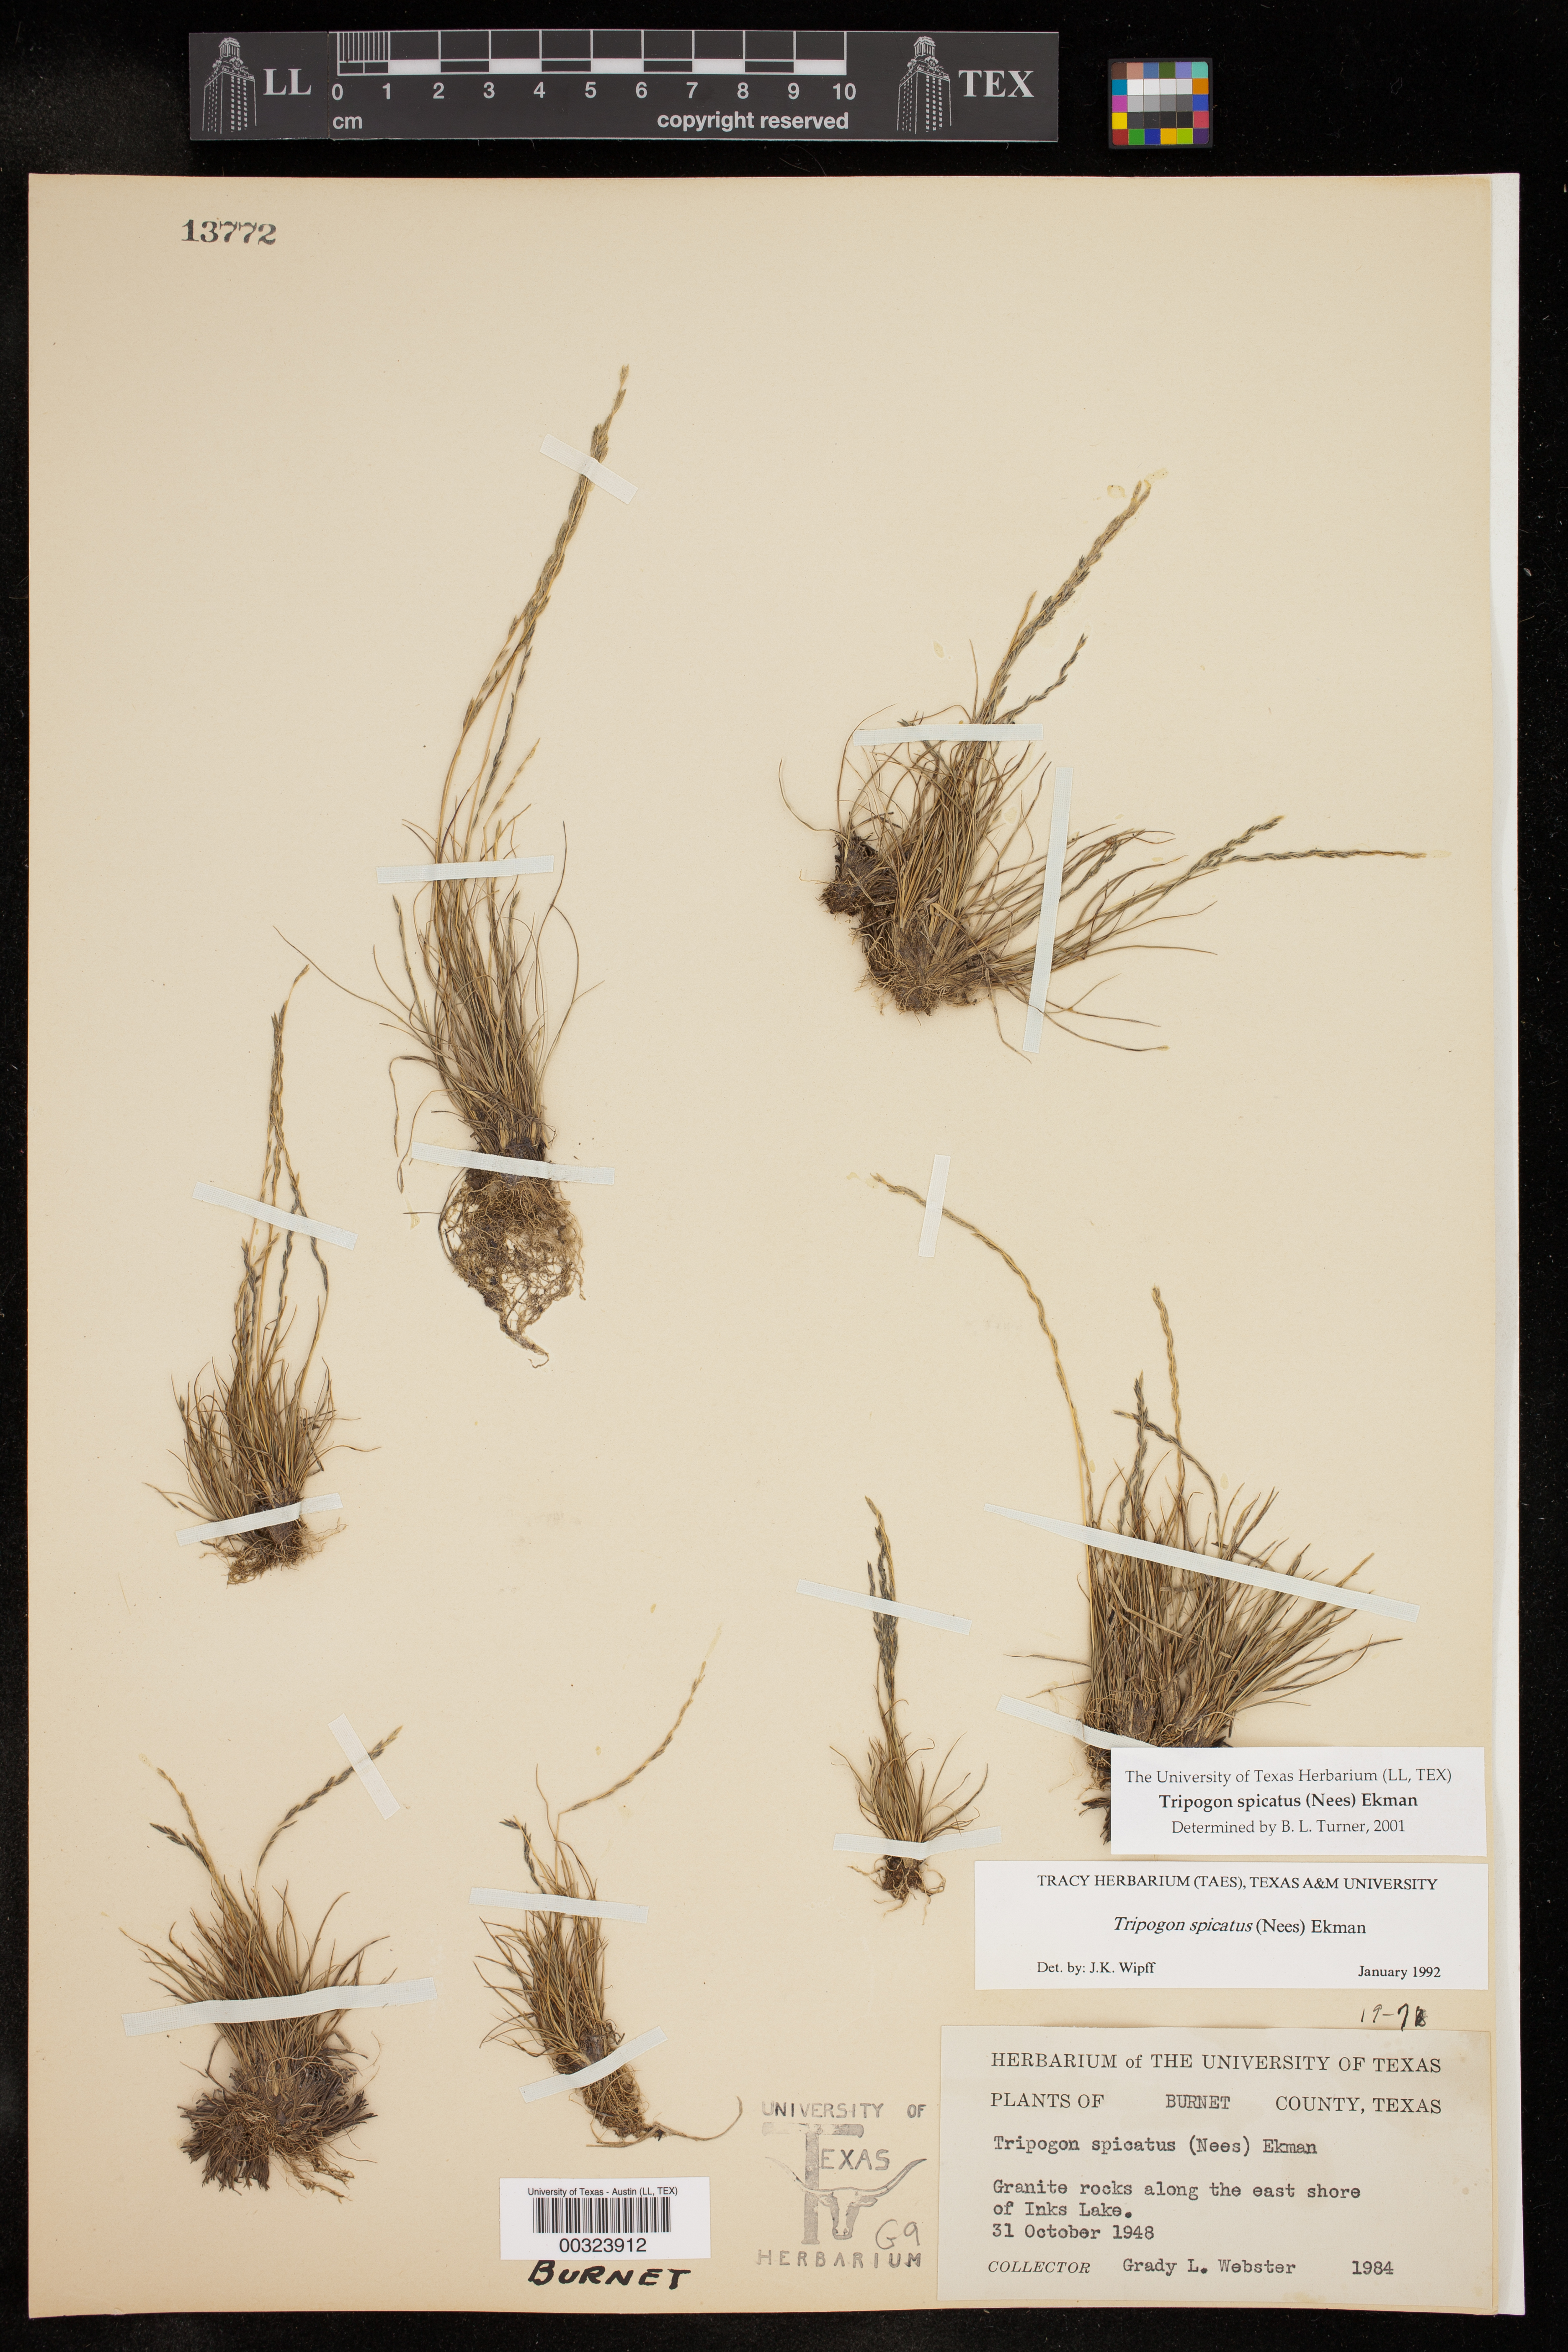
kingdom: Plantae
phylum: Tracheophyta
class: Liliopsida
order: Poales
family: Poaceae
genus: Tripogonella
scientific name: Tripogonella spicata
